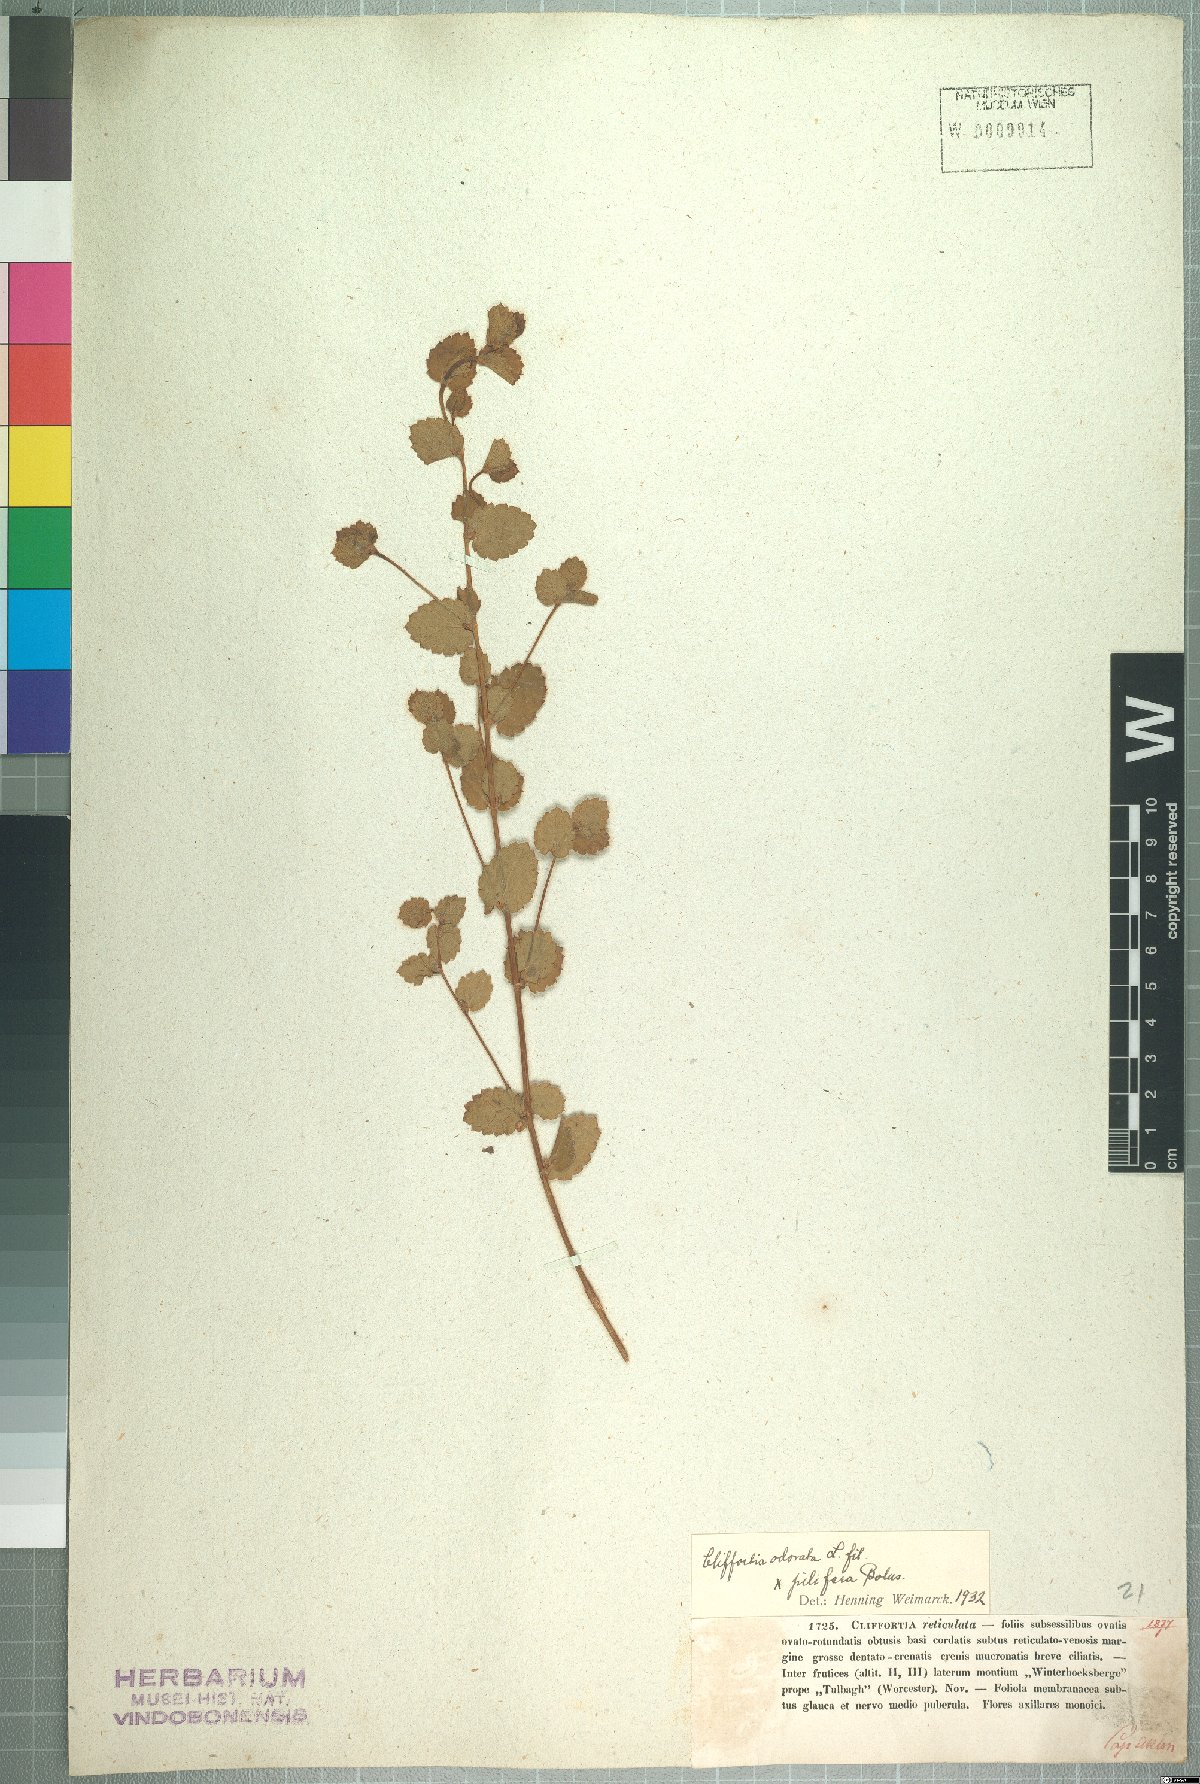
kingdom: Plantae
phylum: Tracheophyta
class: Magnoliopsida
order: Rosales
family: Rosaceae
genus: Cliffortia
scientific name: Cliffortia reticulata
